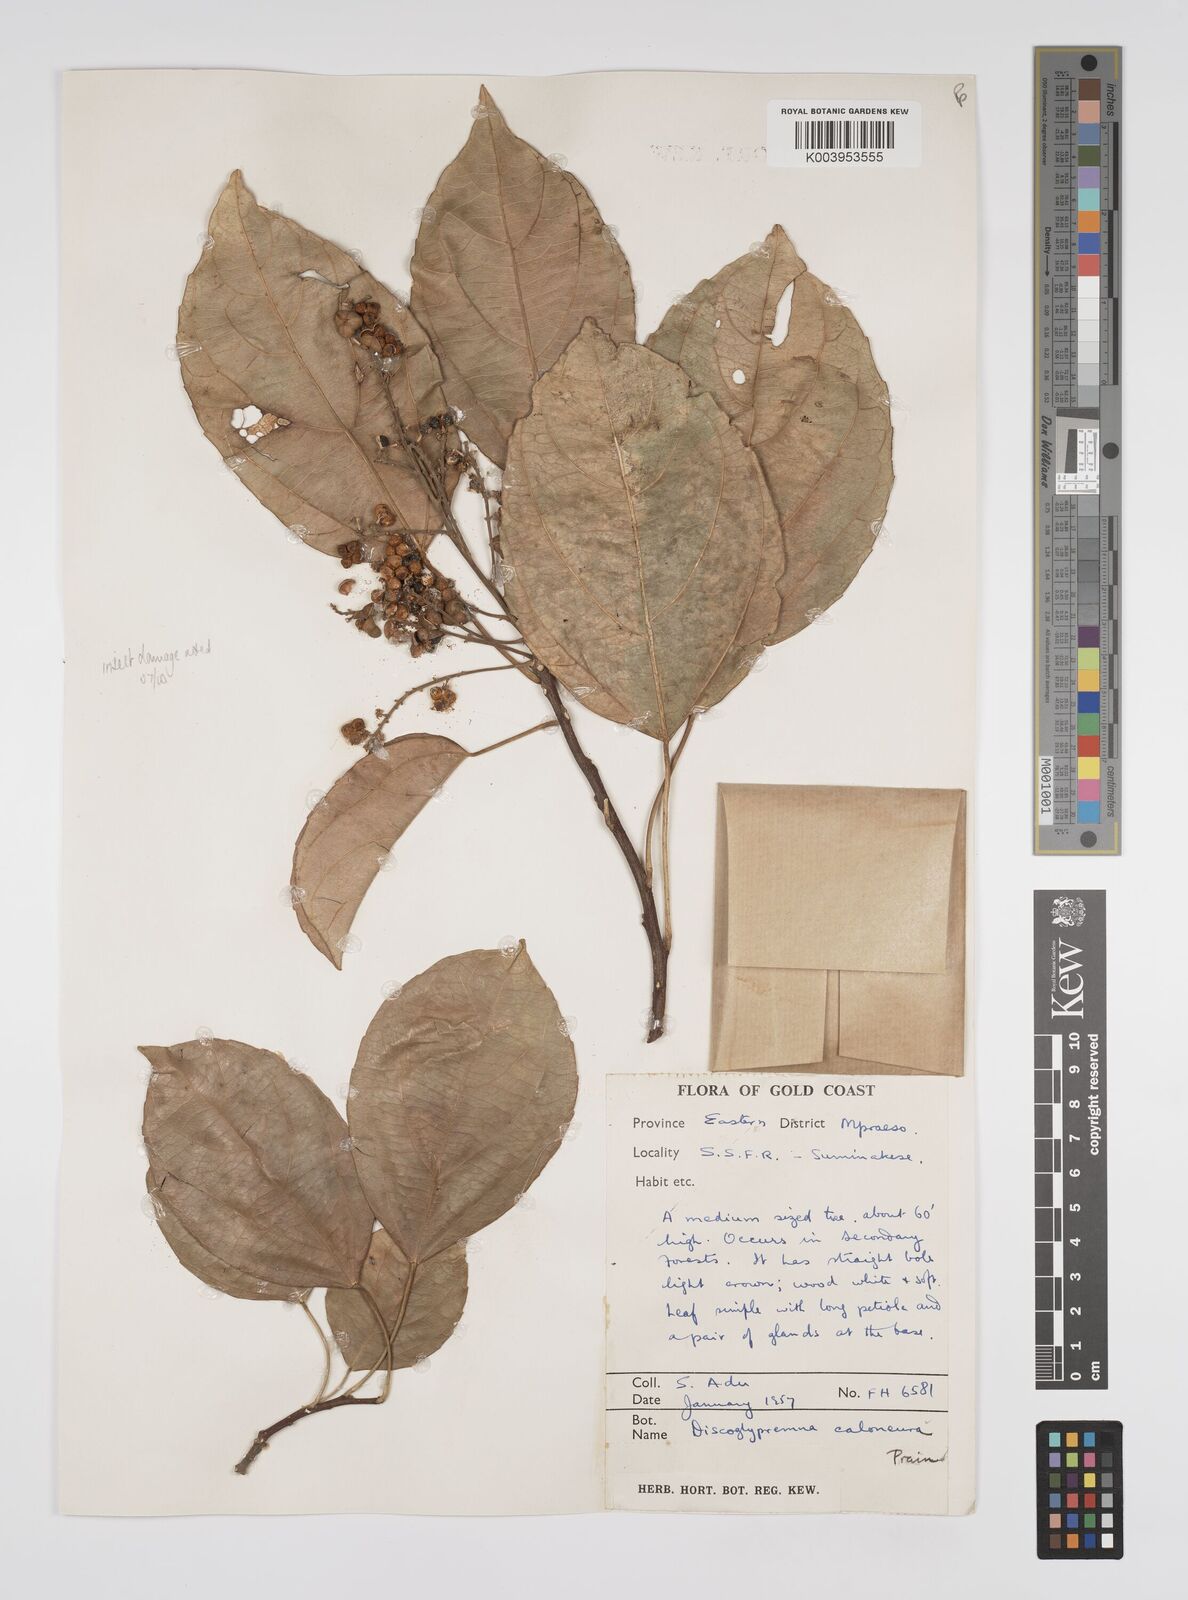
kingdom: Plantae
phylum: Tracheophyta
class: Magnoliopsida
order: Malpighiales
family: Euphorbiaceae
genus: Discoglypremna
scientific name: Discoglypremna caloneura
